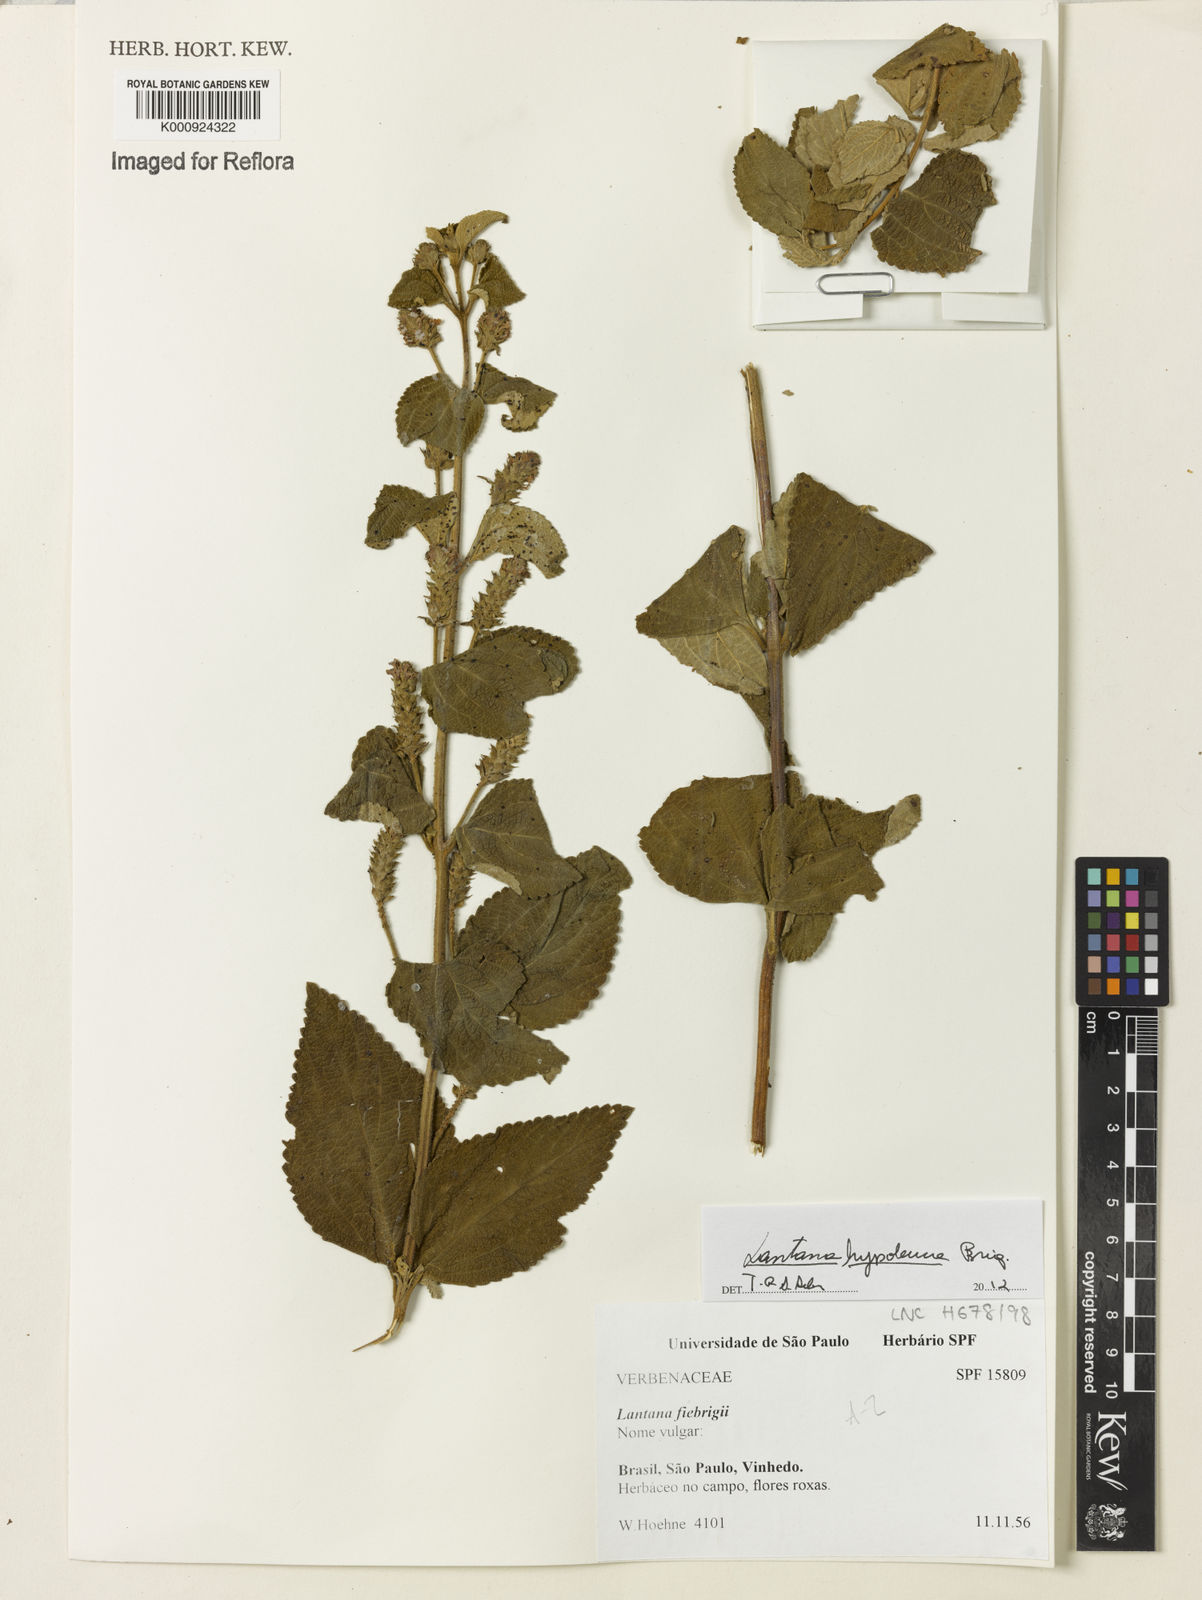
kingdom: Plantae
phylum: Tracheophyta
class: Magnoliopsida
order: Lamiales
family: Verbenaceae
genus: Lantana
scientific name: Lantana hypoleuca
